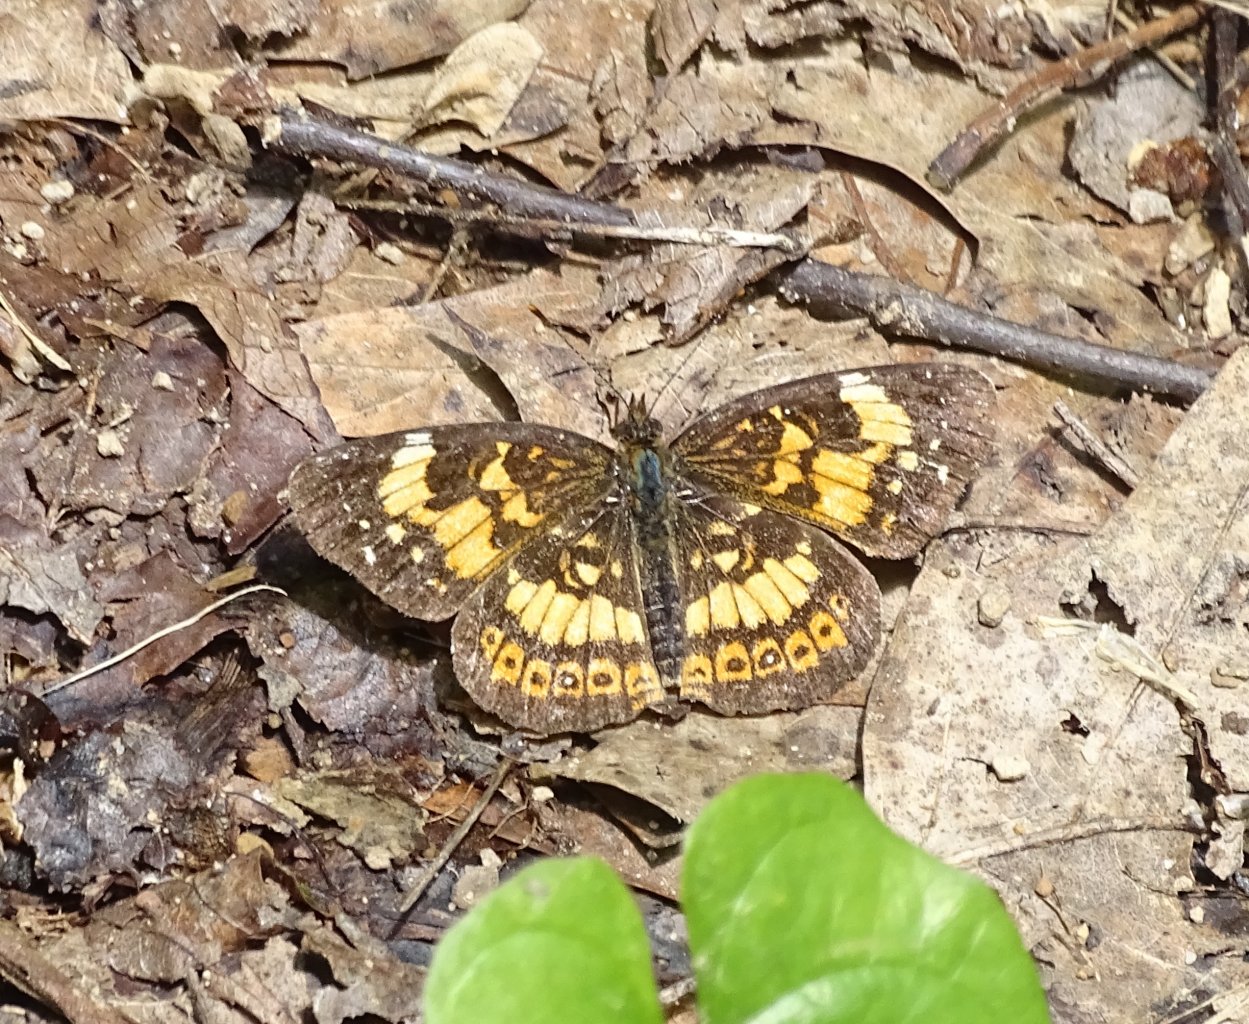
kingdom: Animalia
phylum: Arthropoda
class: Insecta
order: Lepidoptera
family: Nymphalidae
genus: Chlosyne
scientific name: Chlosyne nycteis
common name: Silvery Checkerspot
